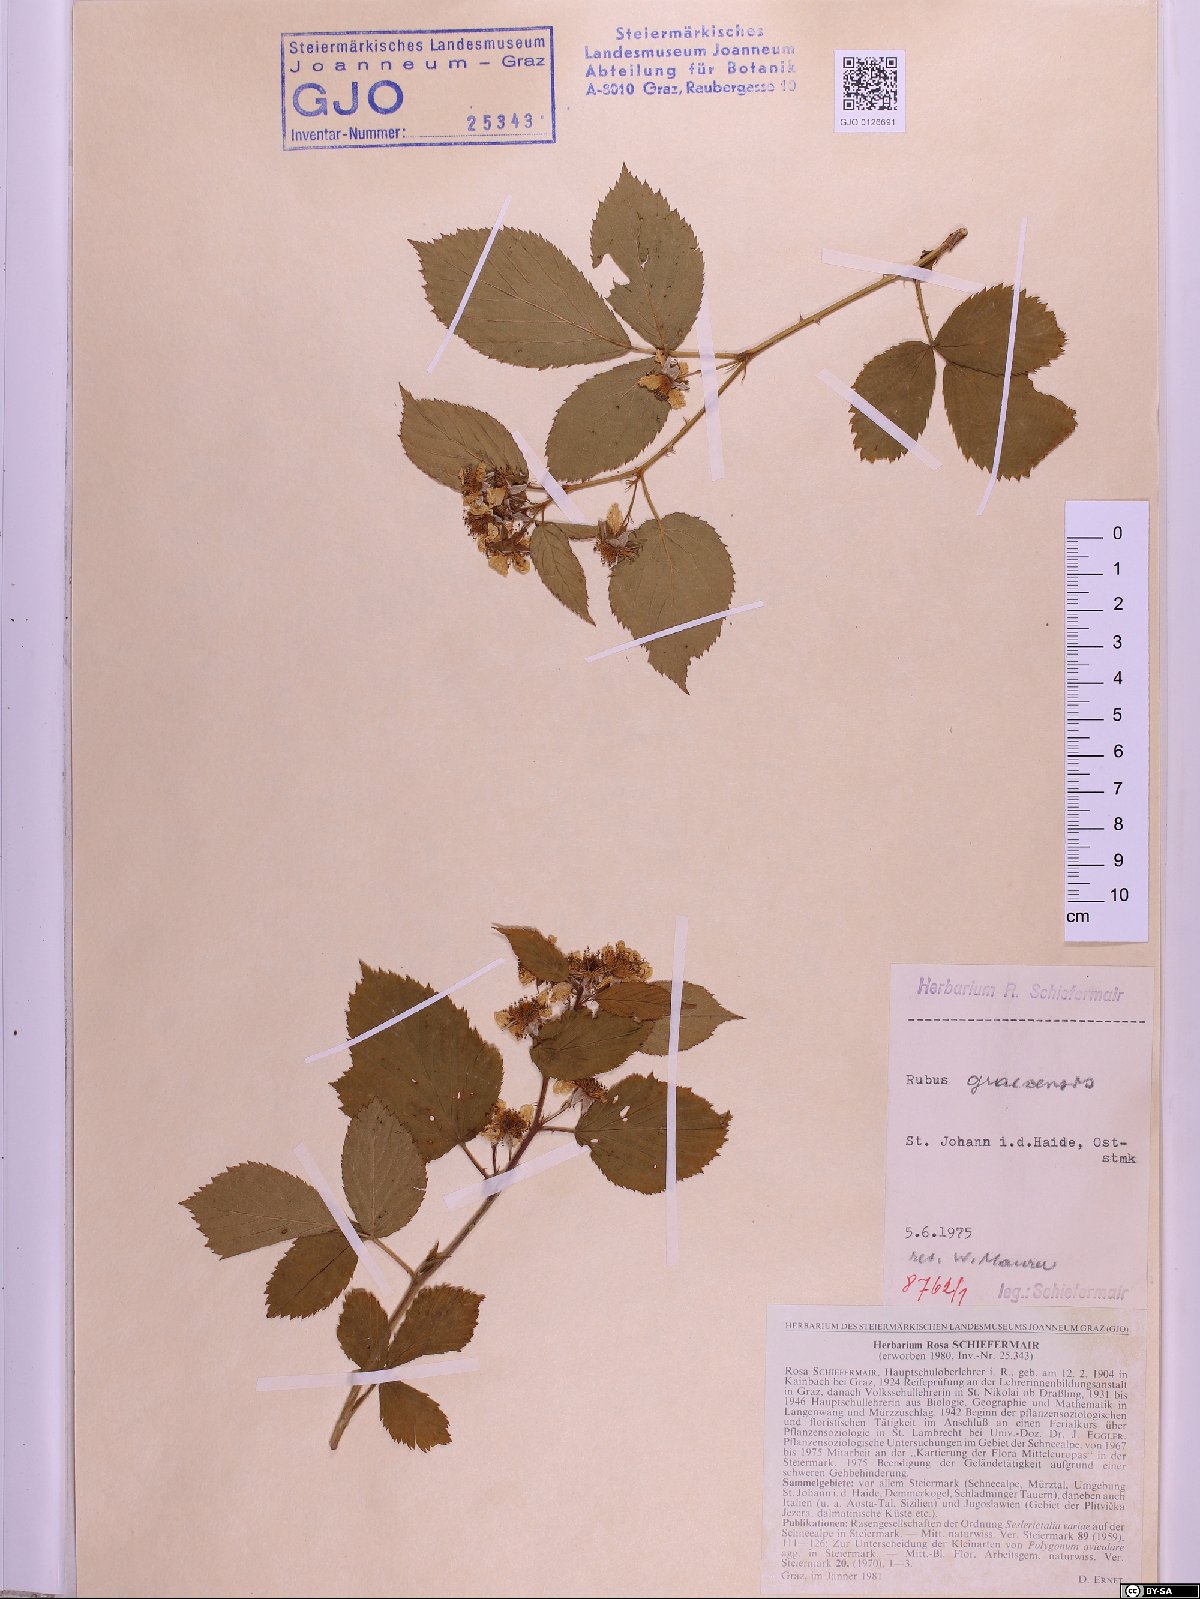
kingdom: Plantae
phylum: Tracheophyta
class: Magnoliopsida
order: Rosales
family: Rosaceae
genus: Rubus
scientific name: Rubus graecensis
